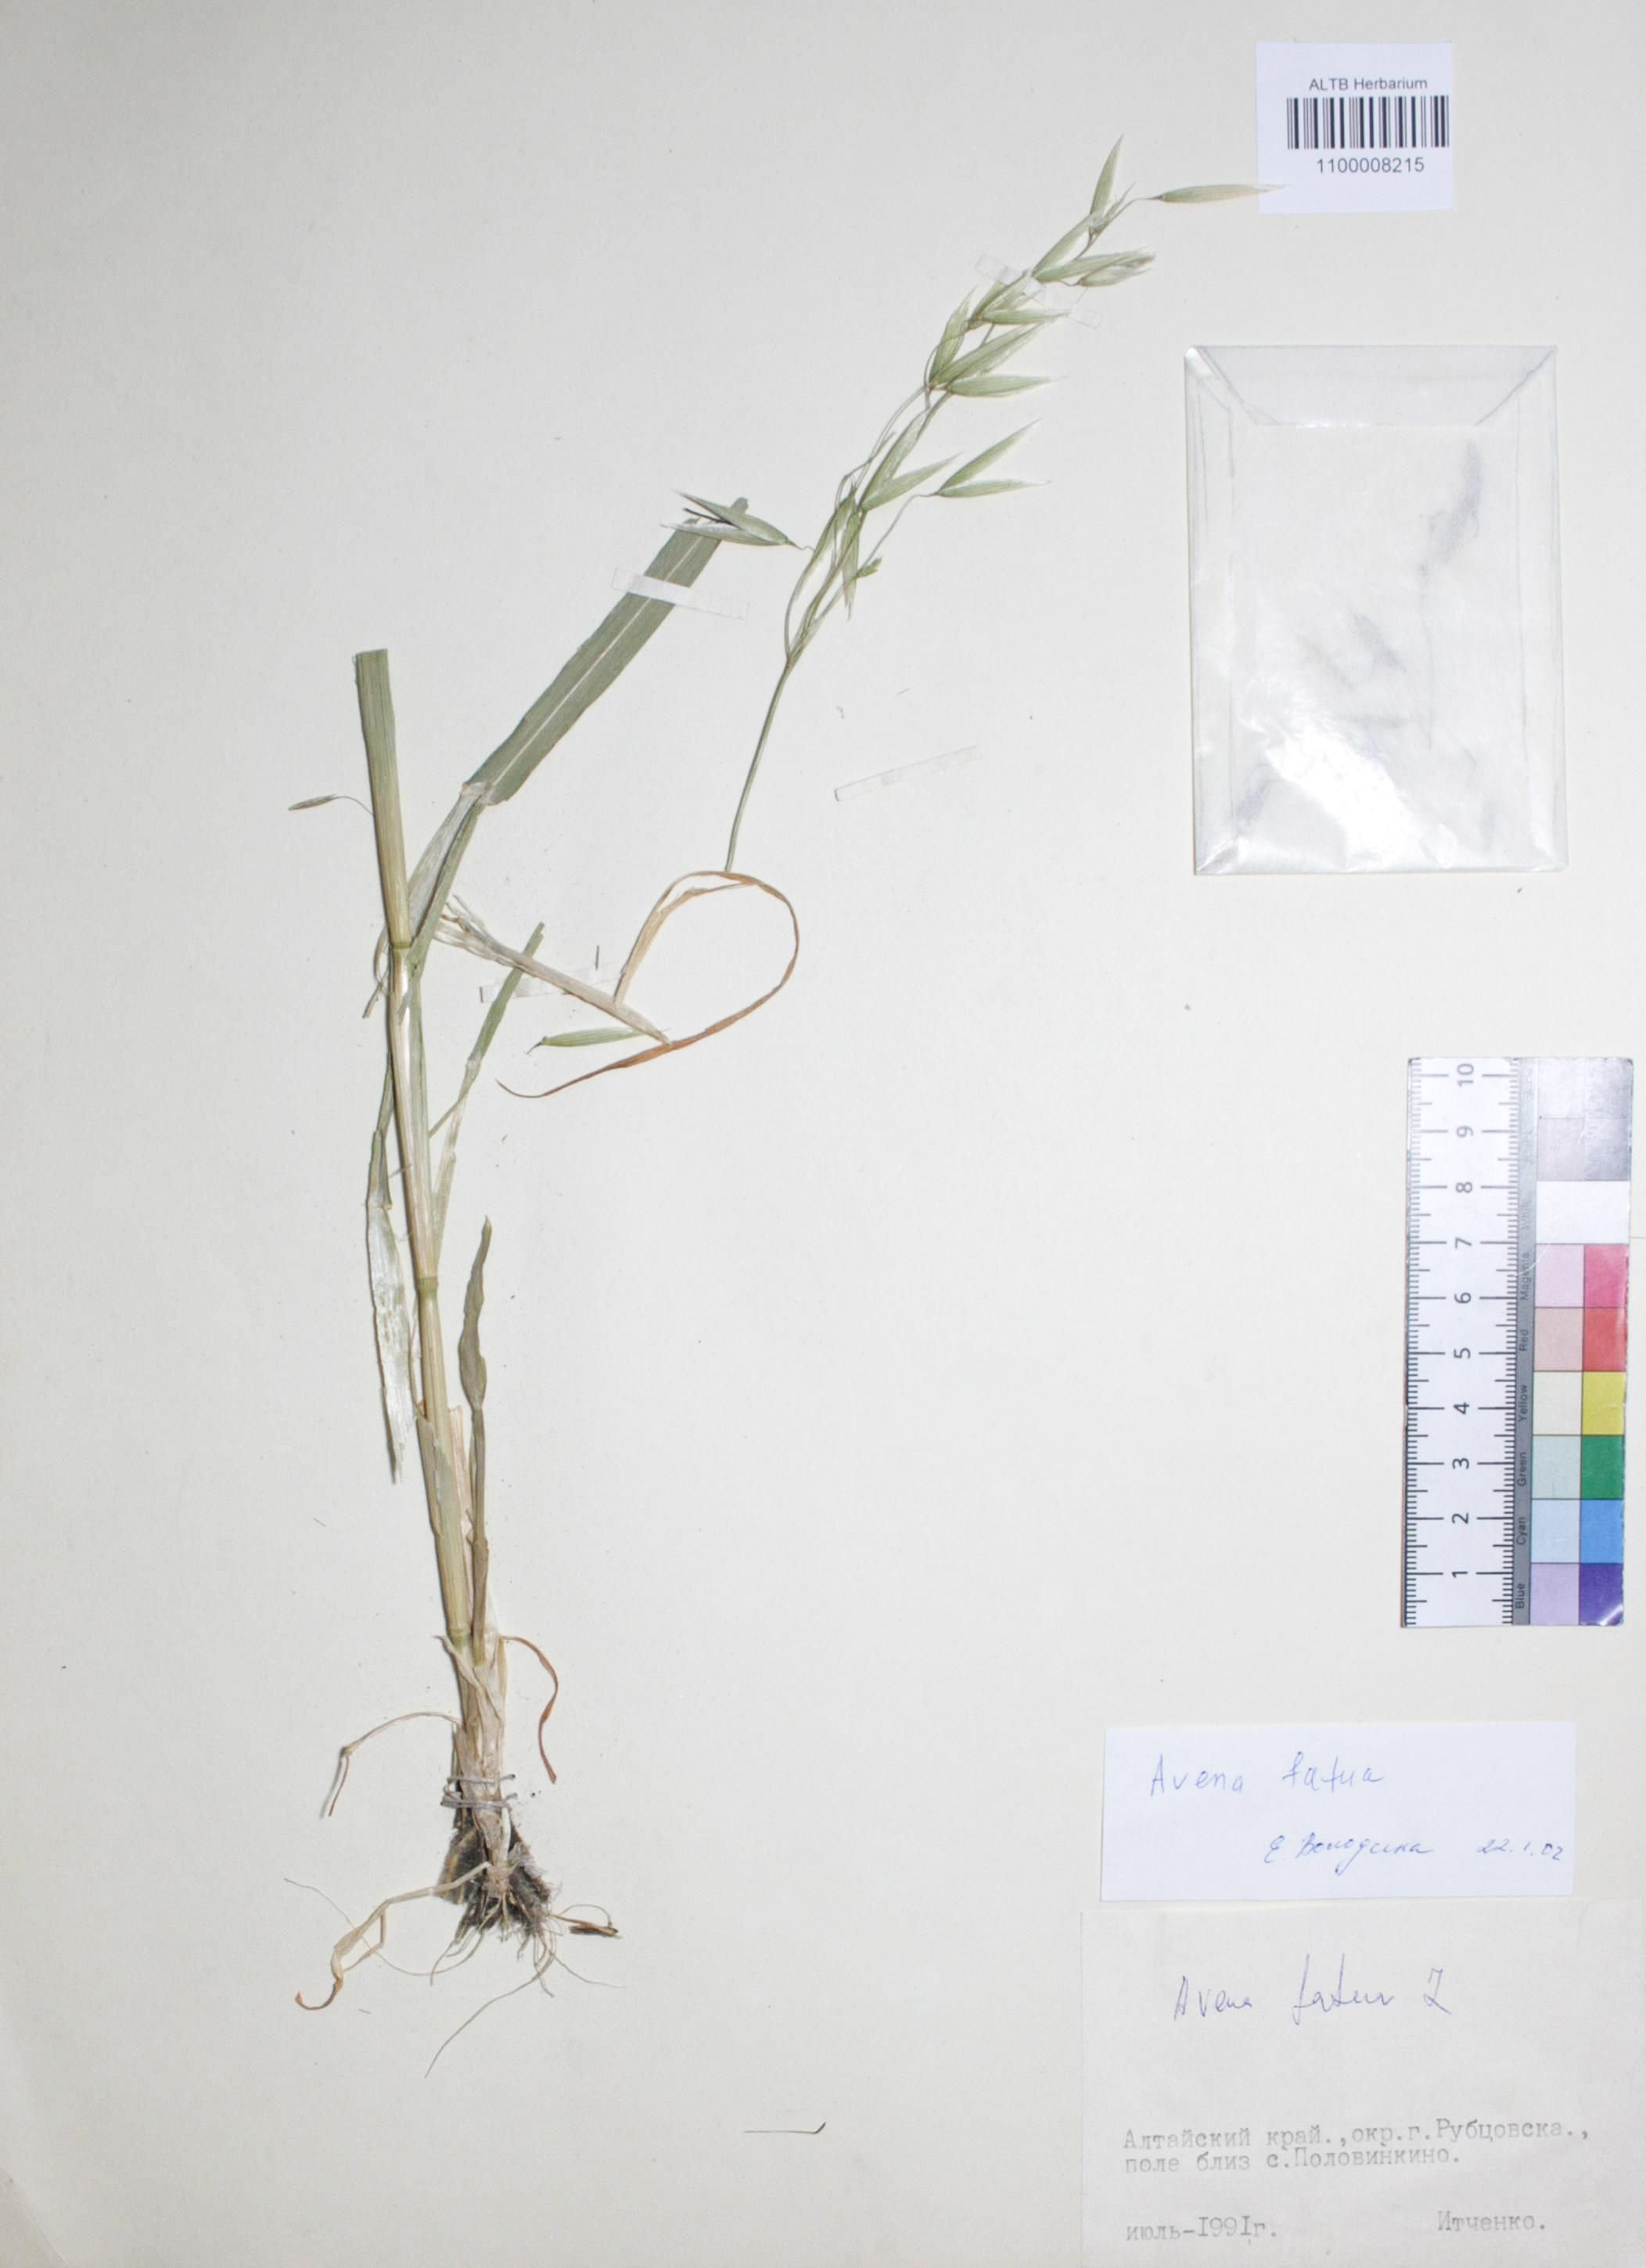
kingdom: Plantae
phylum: Tracheophyta
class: Liliopsida
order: Poales
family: Poaceae
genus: Avena
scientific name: Avena fatua
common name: Wild oat
